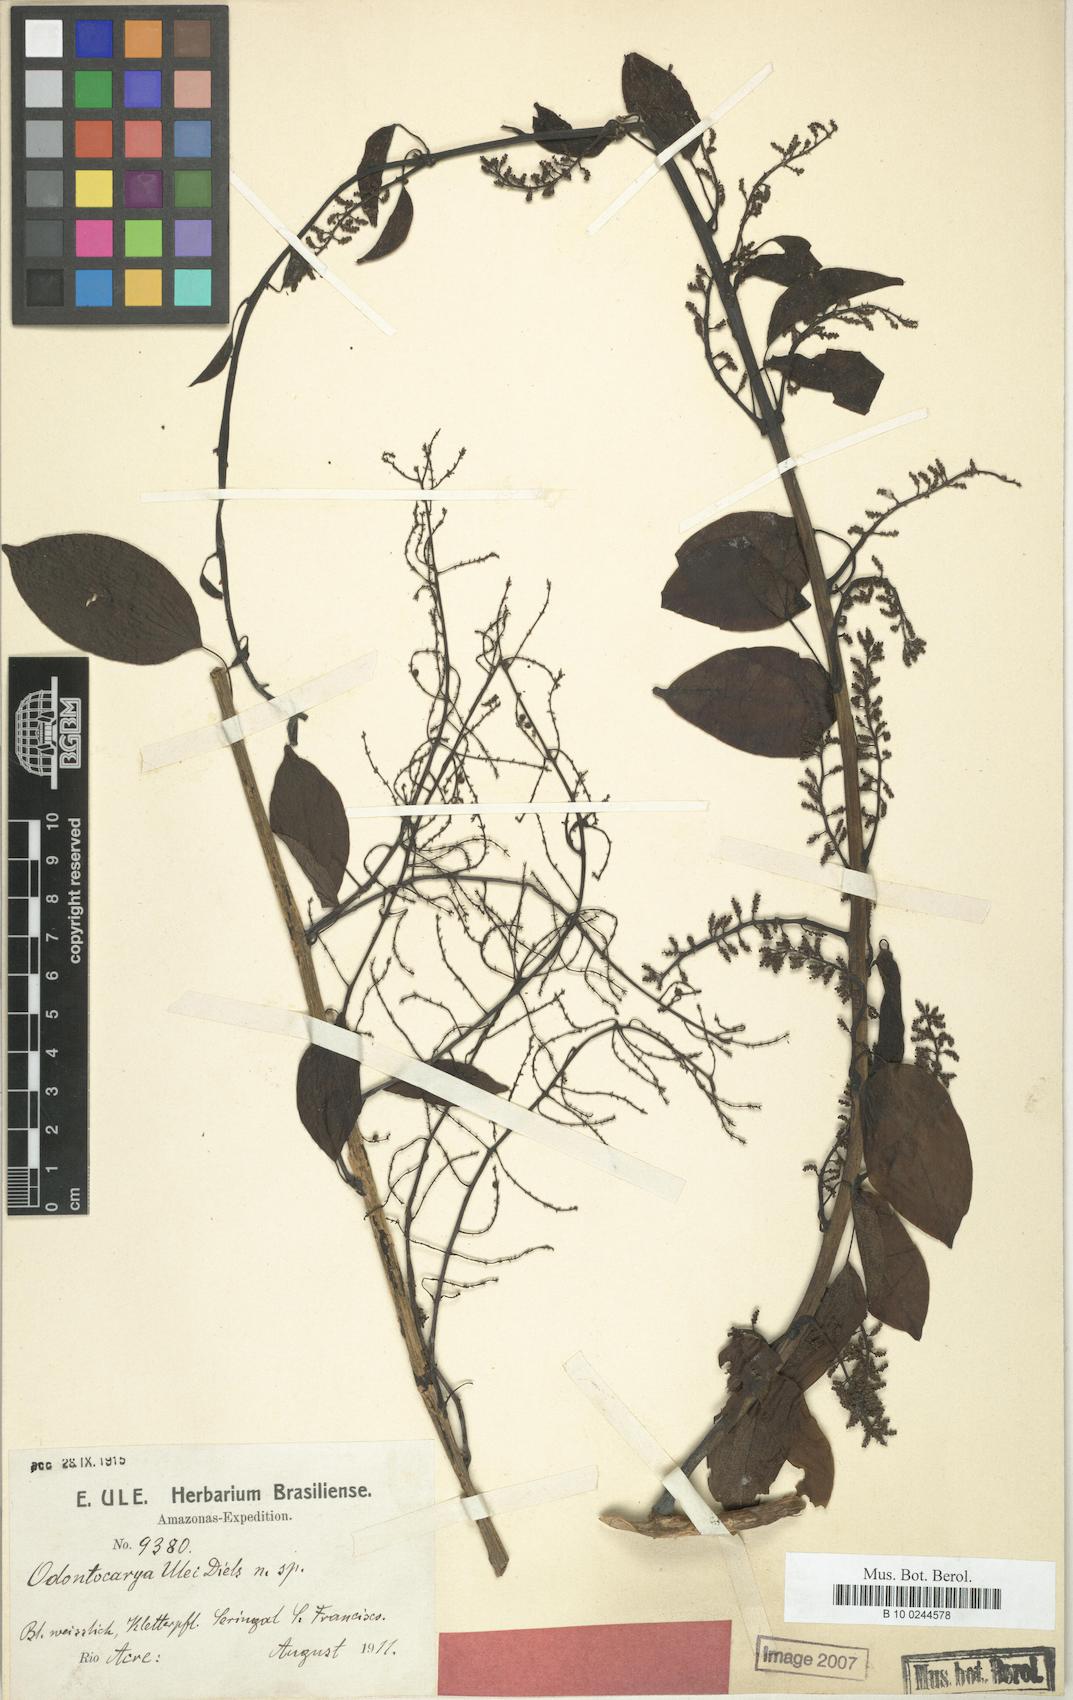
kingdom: Plantae
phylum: Tracheophyta
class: Magnoliopsida
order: Ranunculales
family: Menispermaceae
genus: Odontocarya
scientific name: Odontocarya ulei
